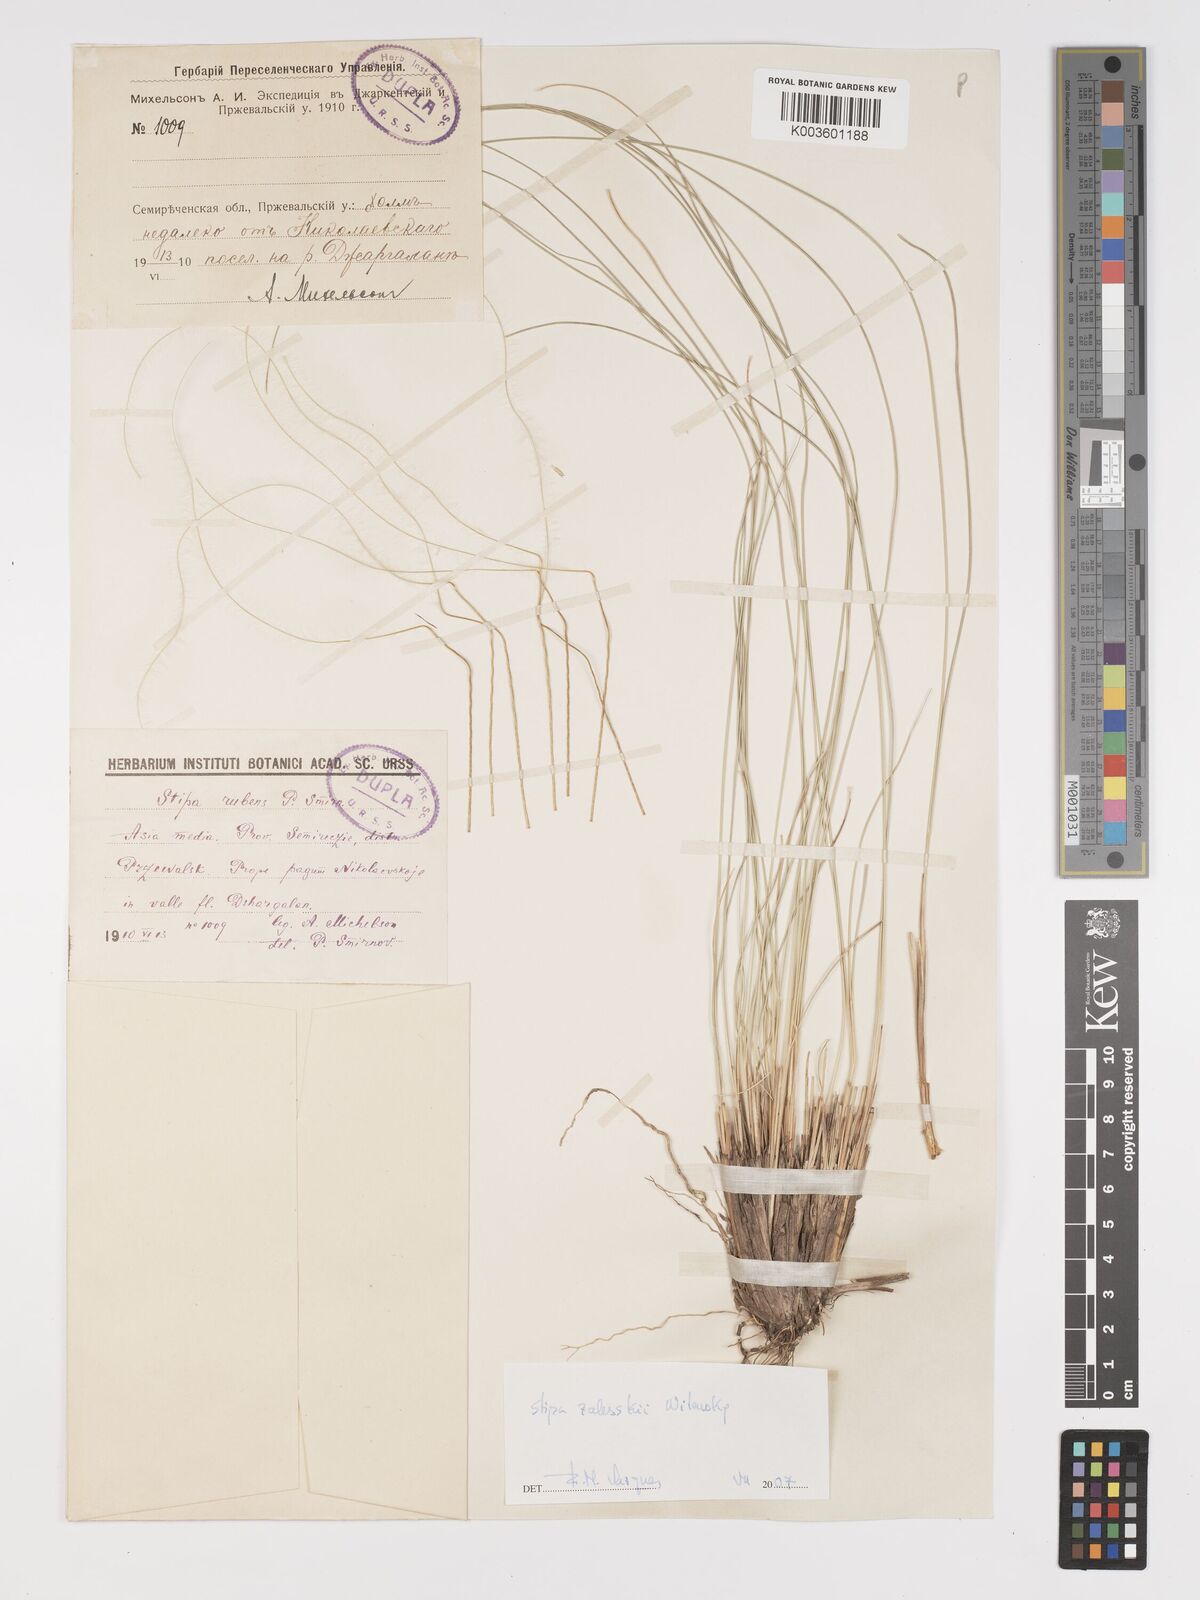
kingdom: Plantae
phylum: Tracheophyta
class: Liliopsida
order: Poales
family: Poaceae
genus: Stipa
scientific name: Stipa
